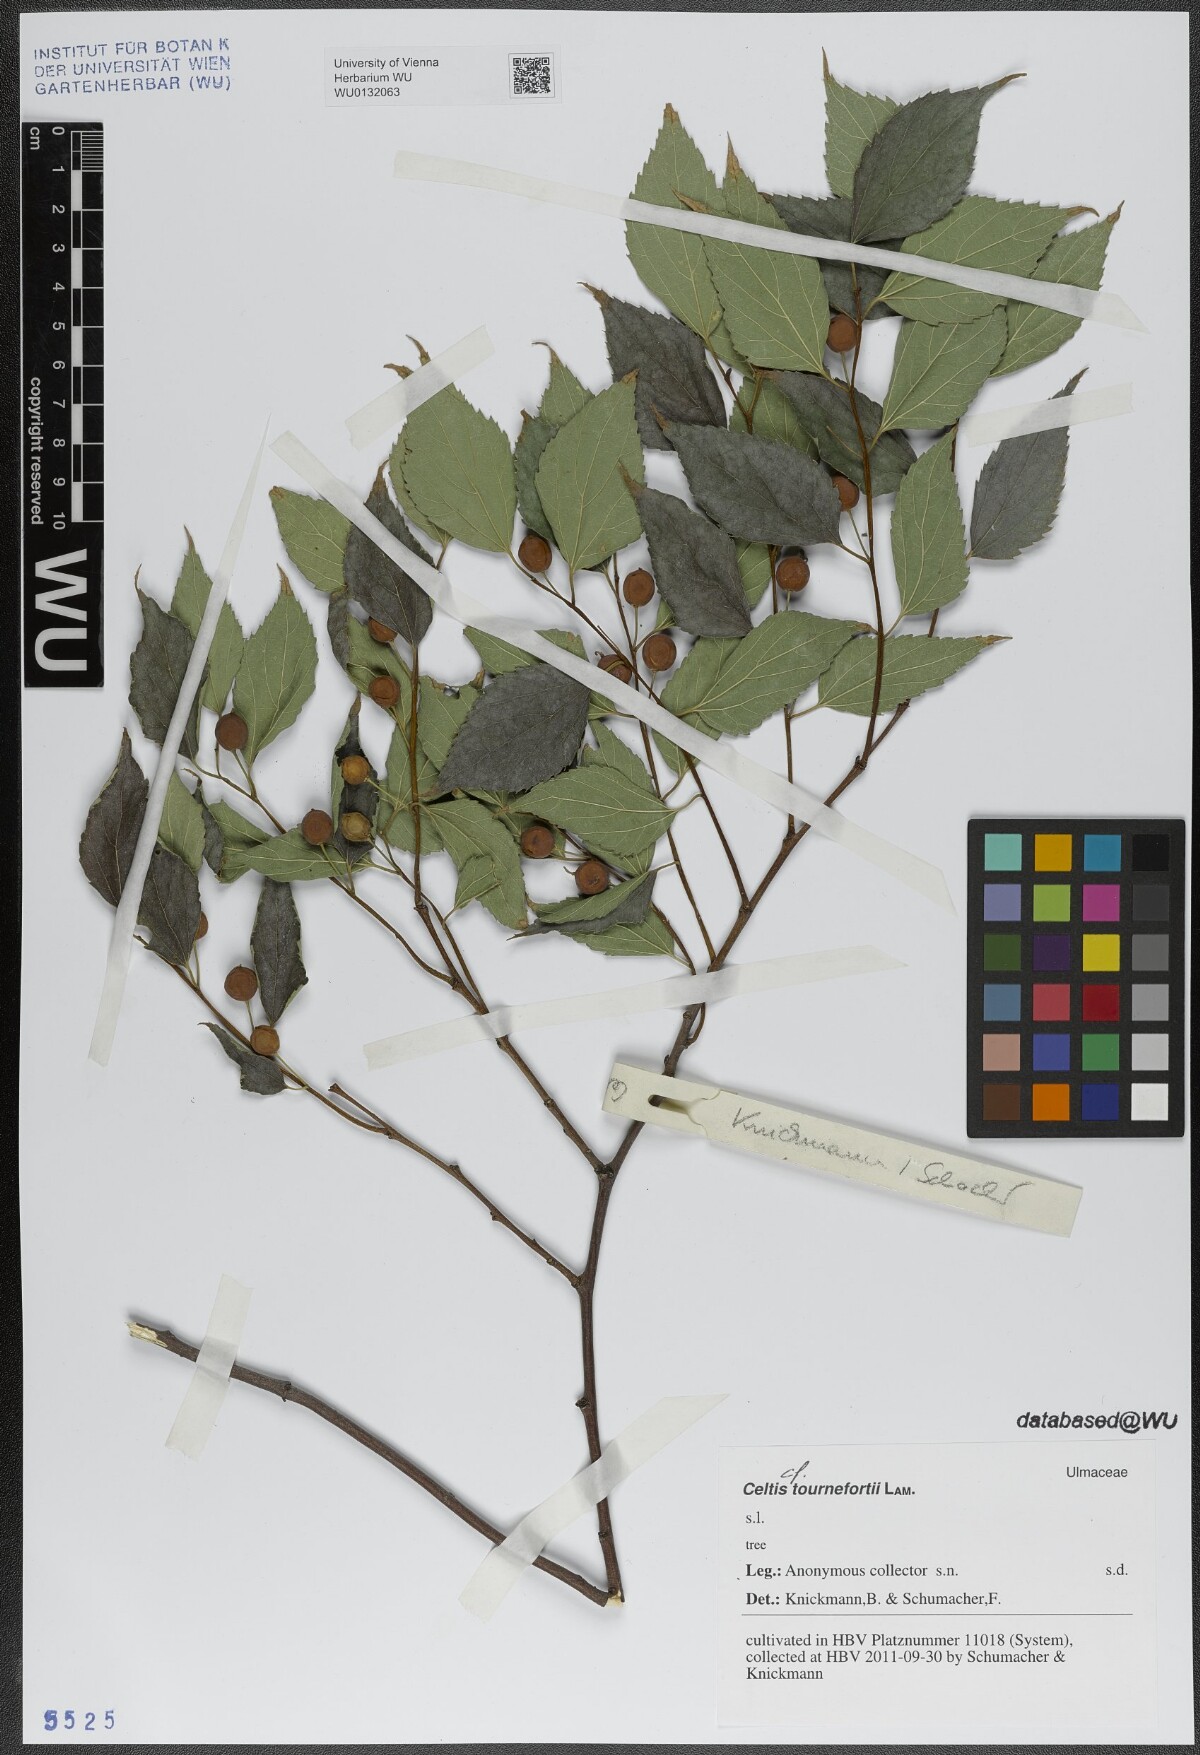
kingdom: Plantae
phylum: Tracheophyta
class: Magnoliopsida
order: Rosales
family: Cannabaceae
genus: Celtis
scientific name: Celtis tournefortii
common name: Oriental hackberry
